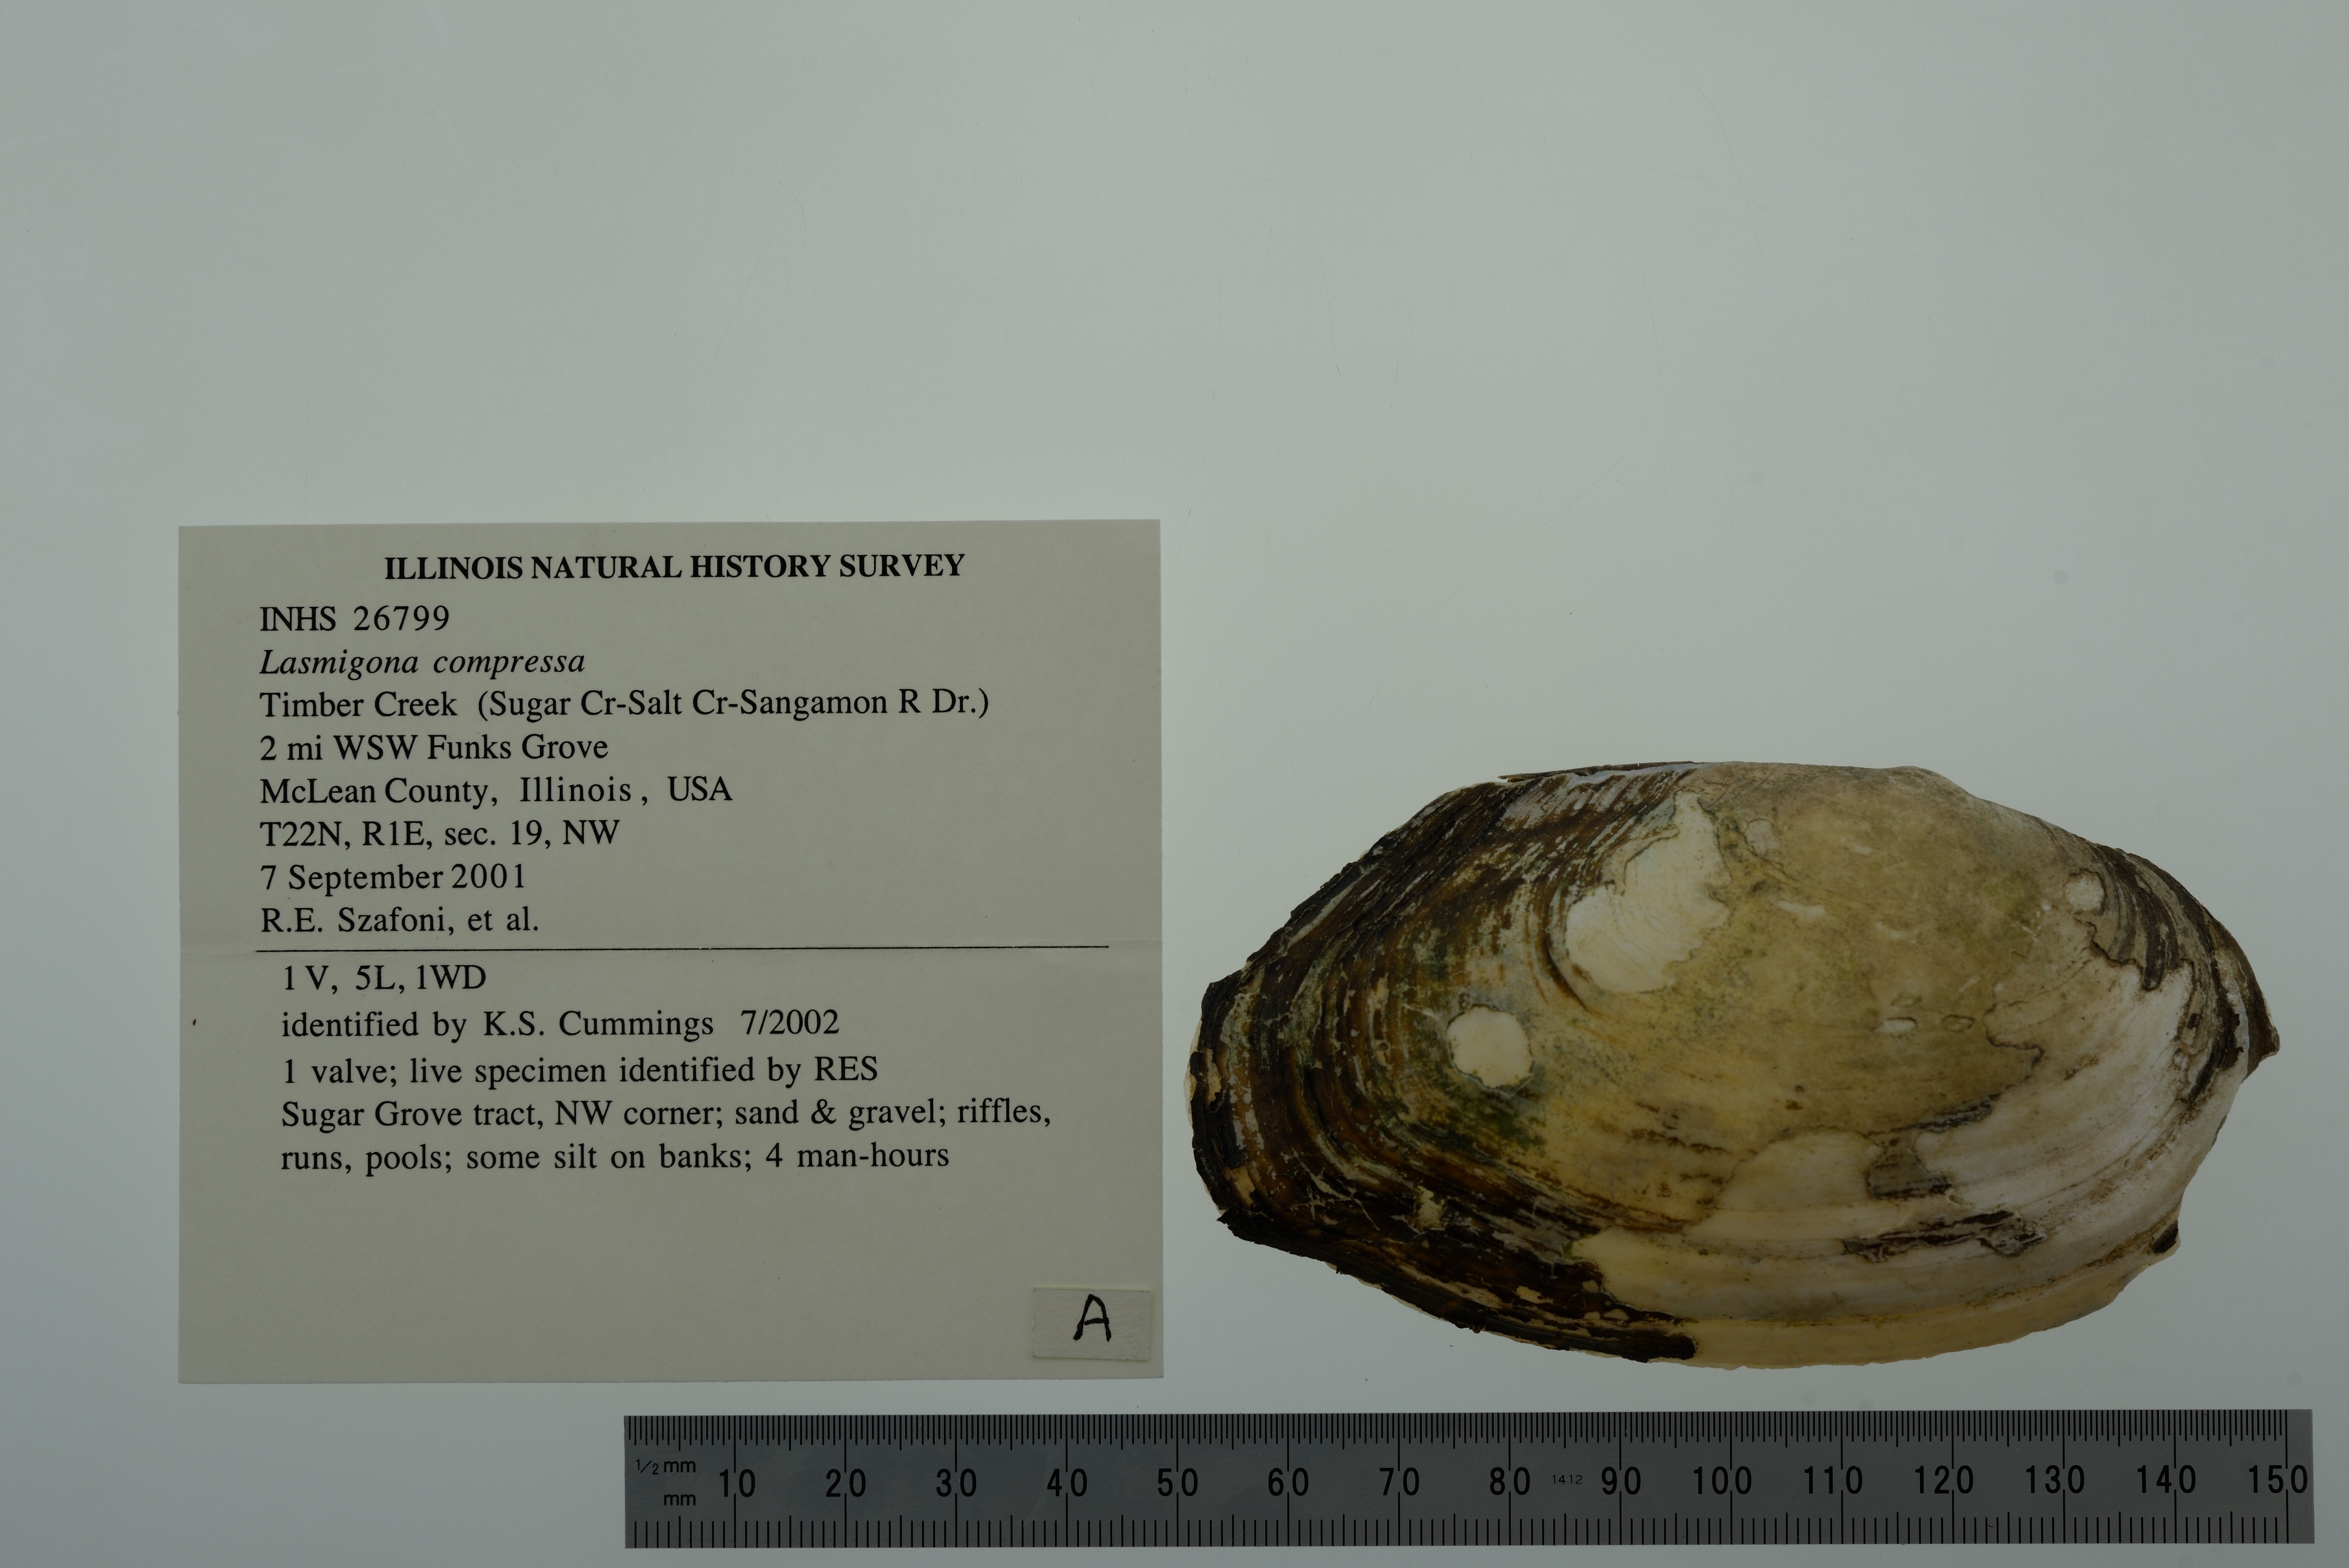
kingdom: Animalia
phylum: Mollusca
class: Bivalvia
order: Unionida
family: Unionidae
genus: Lasmigona
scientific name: Lasmigona compressa
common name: Creek heelsplitter
